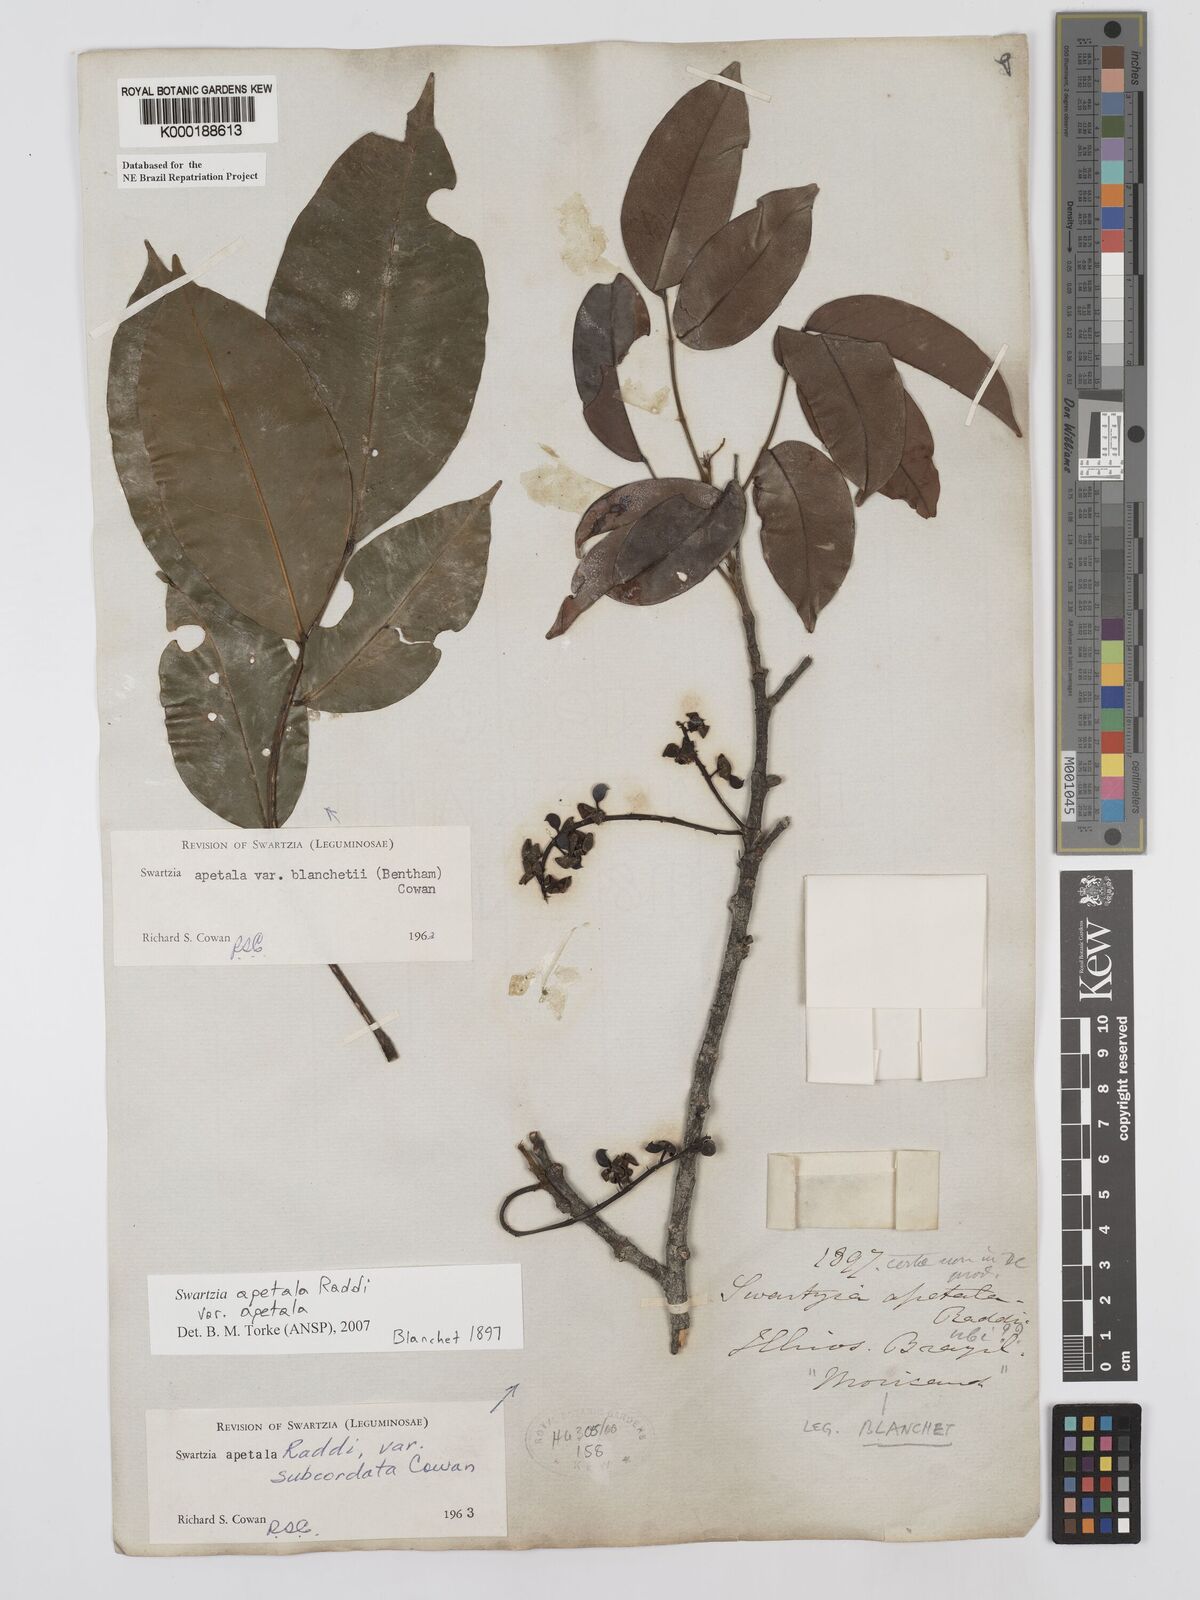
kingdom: Plantae
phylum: Tracheophyta
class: Magnoliopsida
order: Fabales
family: Fabaceae
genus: Swartzia
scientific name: Swartzia apetala
